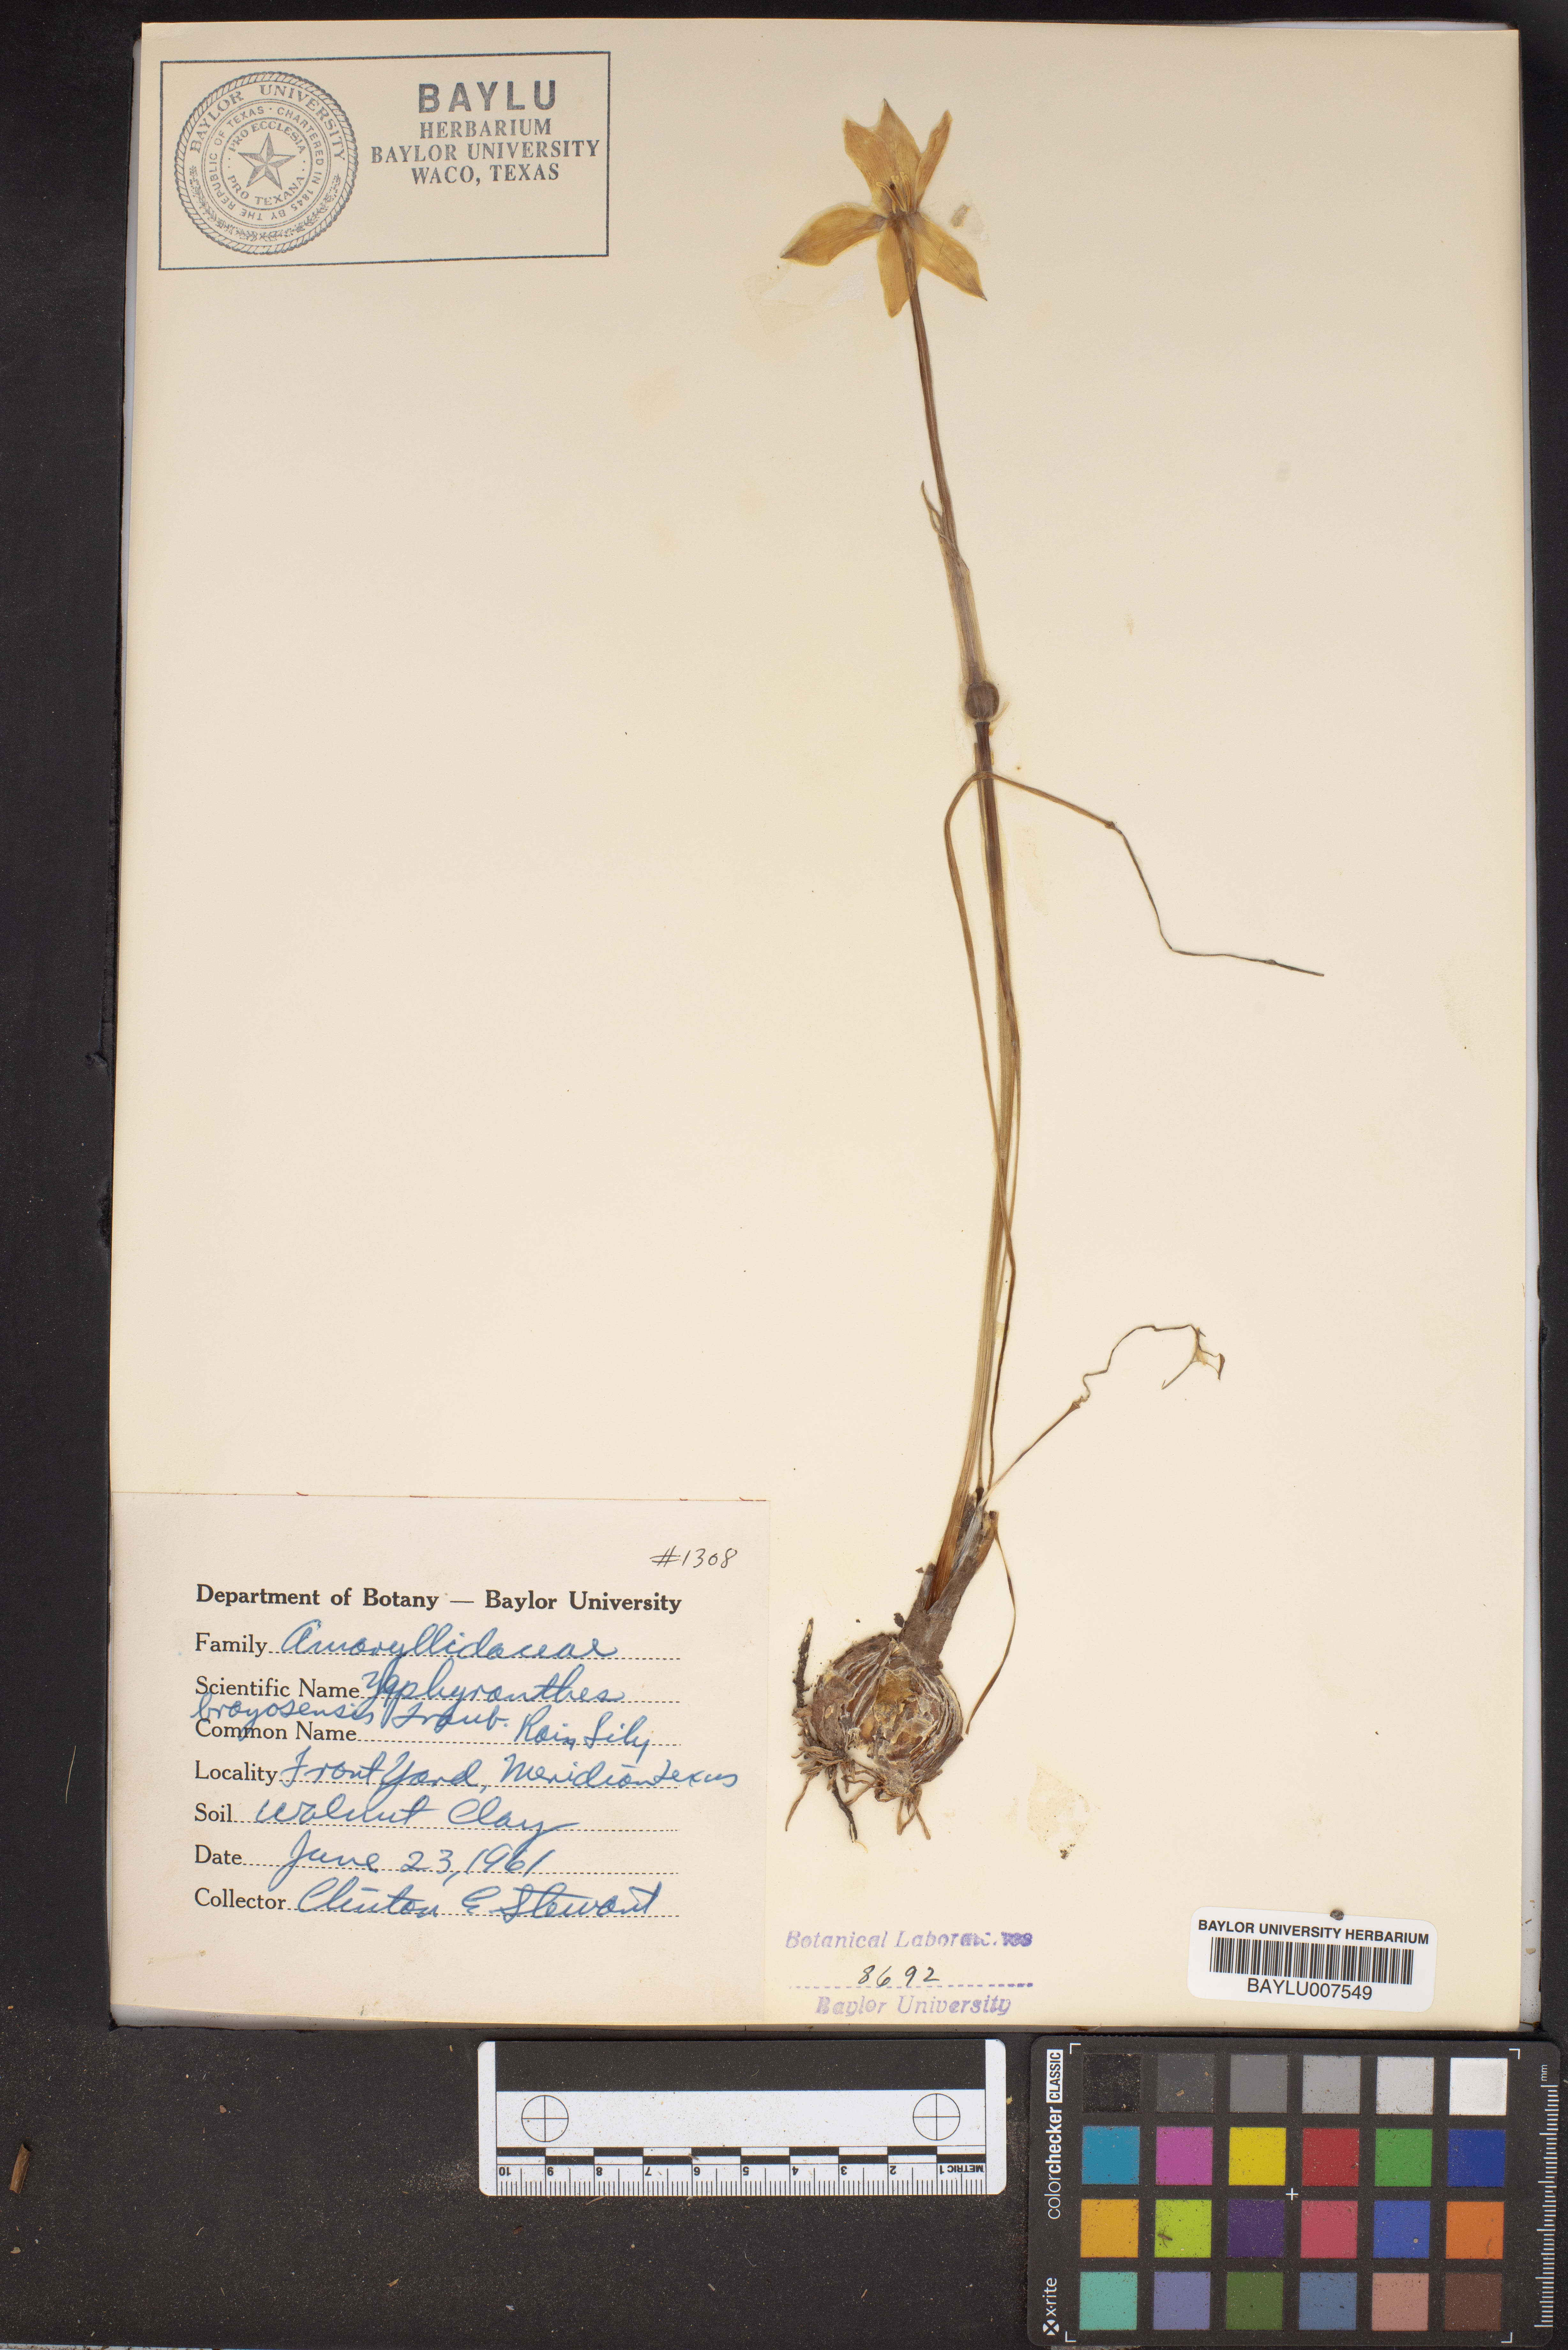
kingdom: Plantae
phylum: Tracheophyta
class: Liliopsida
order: Asparagales
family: Amaryllidaceae
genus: Zephyranthes
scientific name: Zephyranthes chlorosolen
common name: Evening rain-lily
